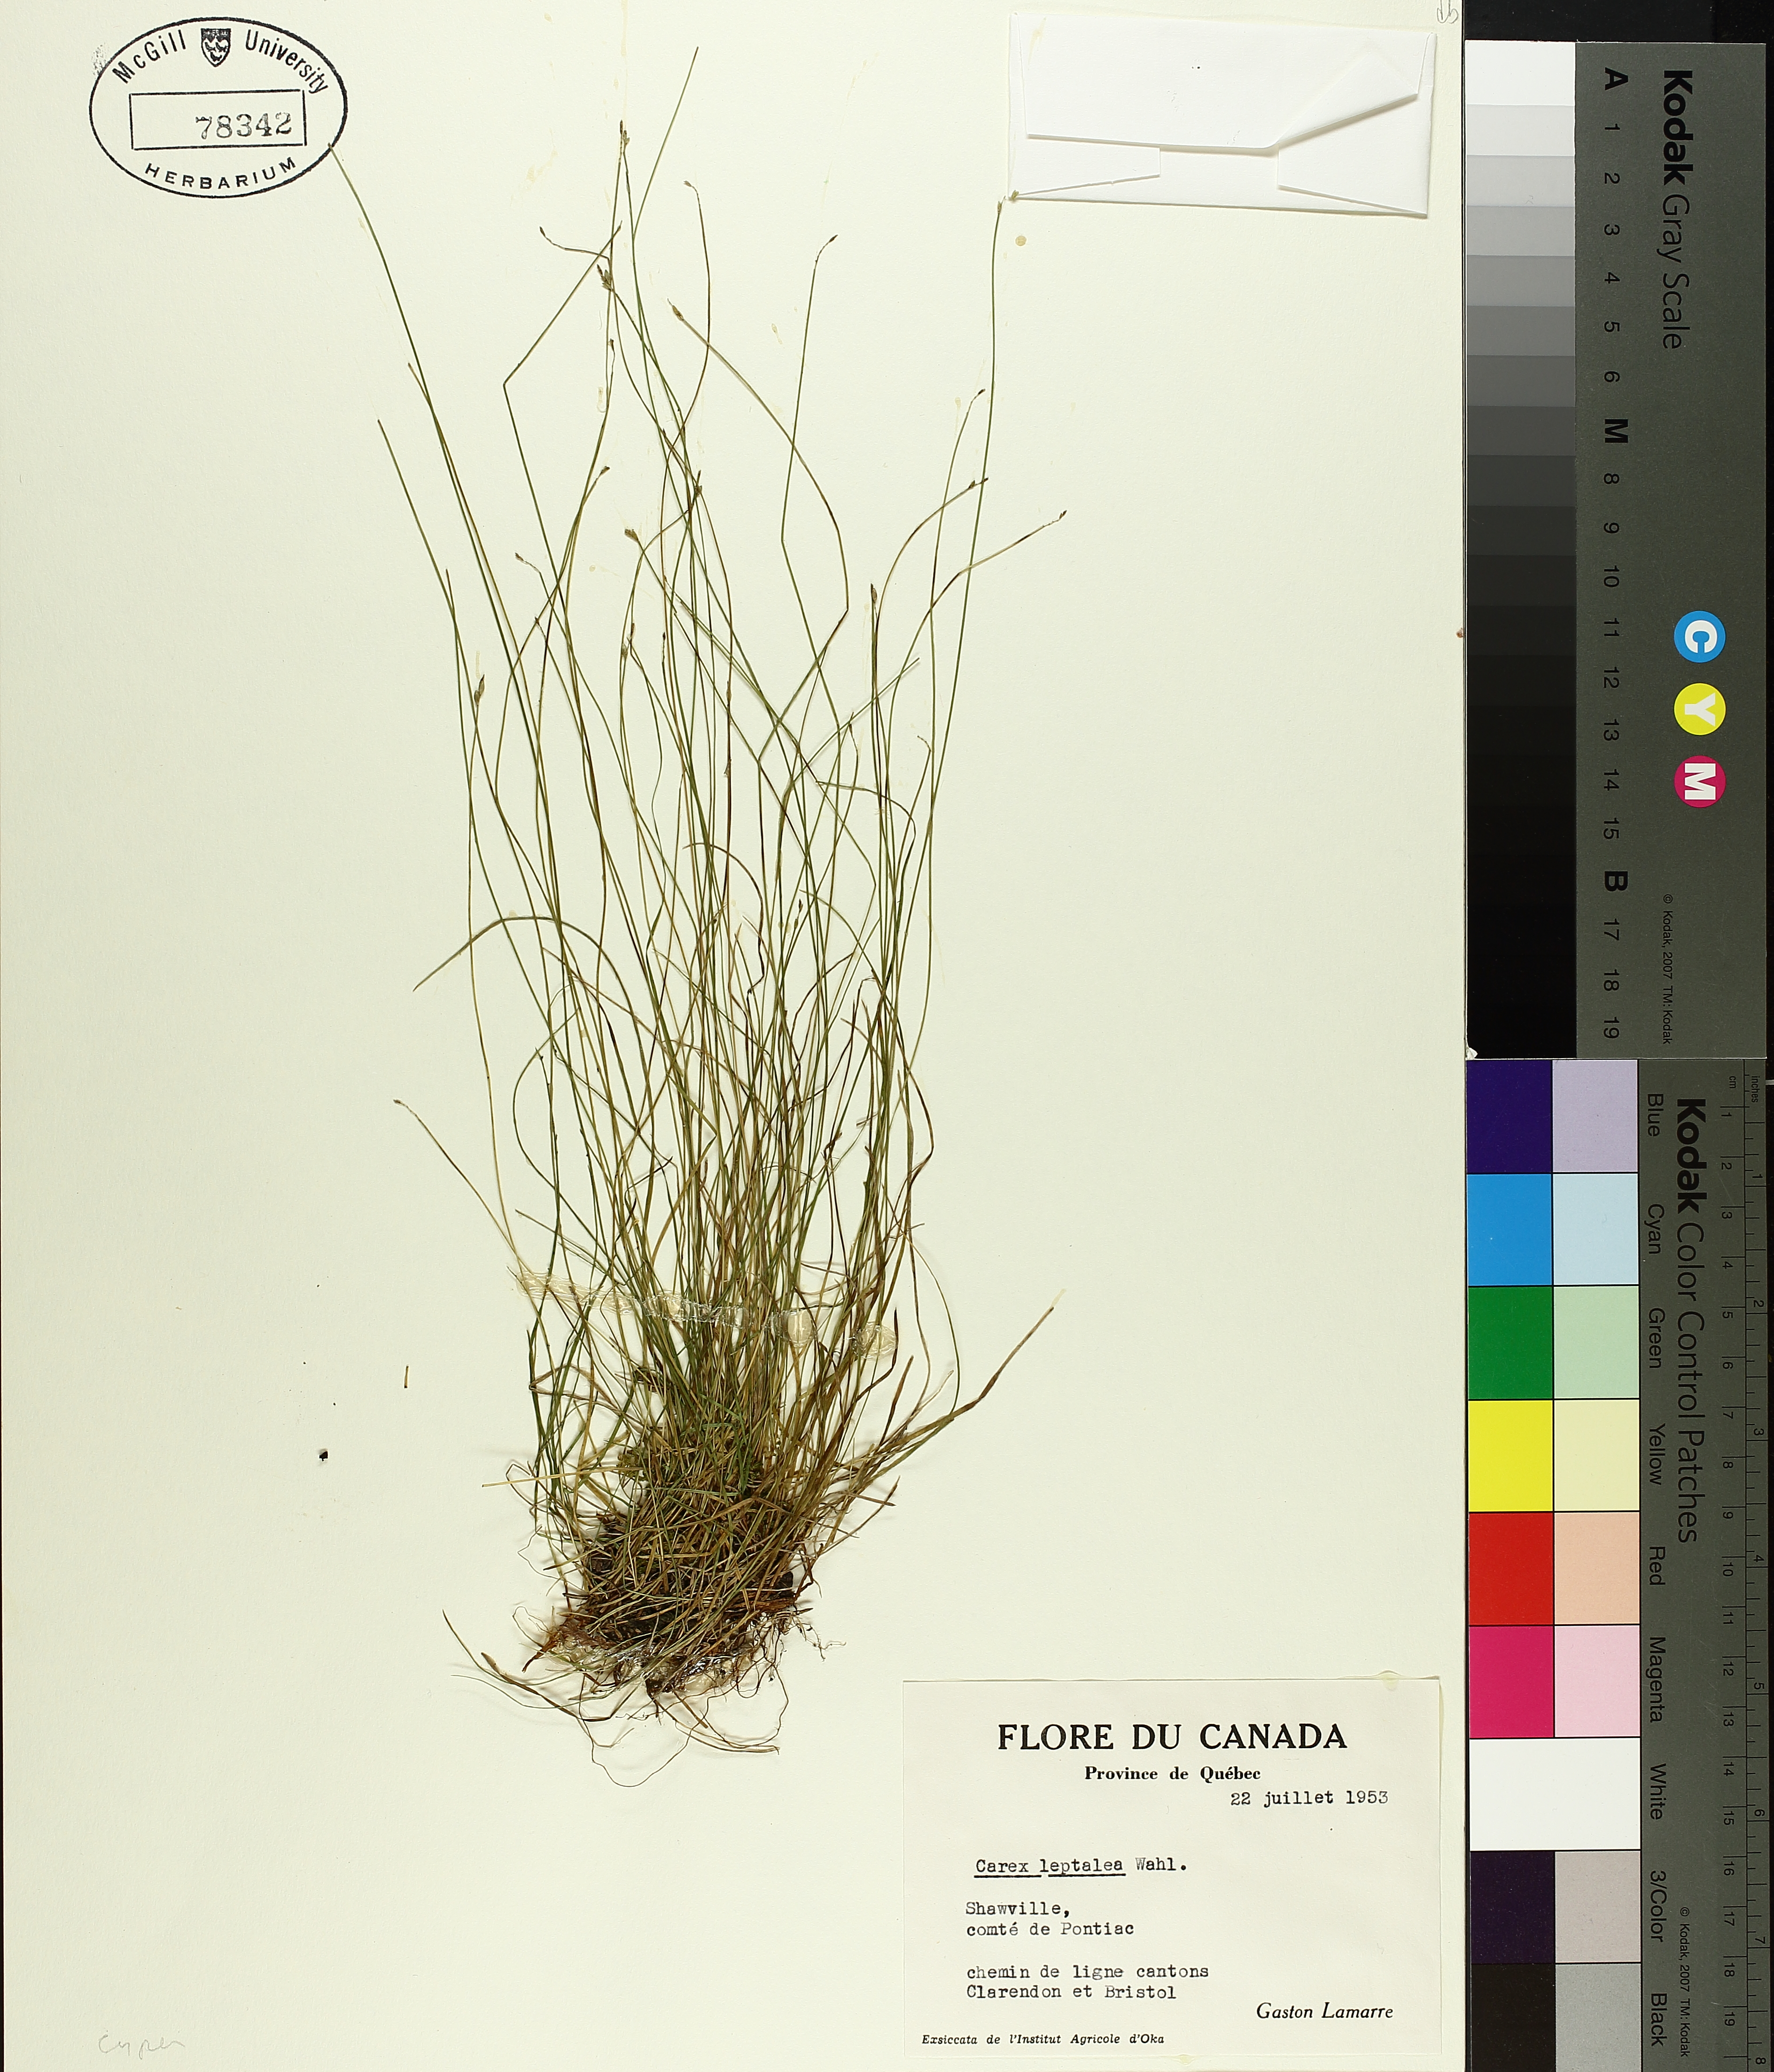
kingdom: Plantae
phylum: Tracheophyta
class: Liliopsida
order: Poales
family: Cyperaceae
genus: Carex
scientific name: Carex leptalea
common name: Bristly-stalked sedge
